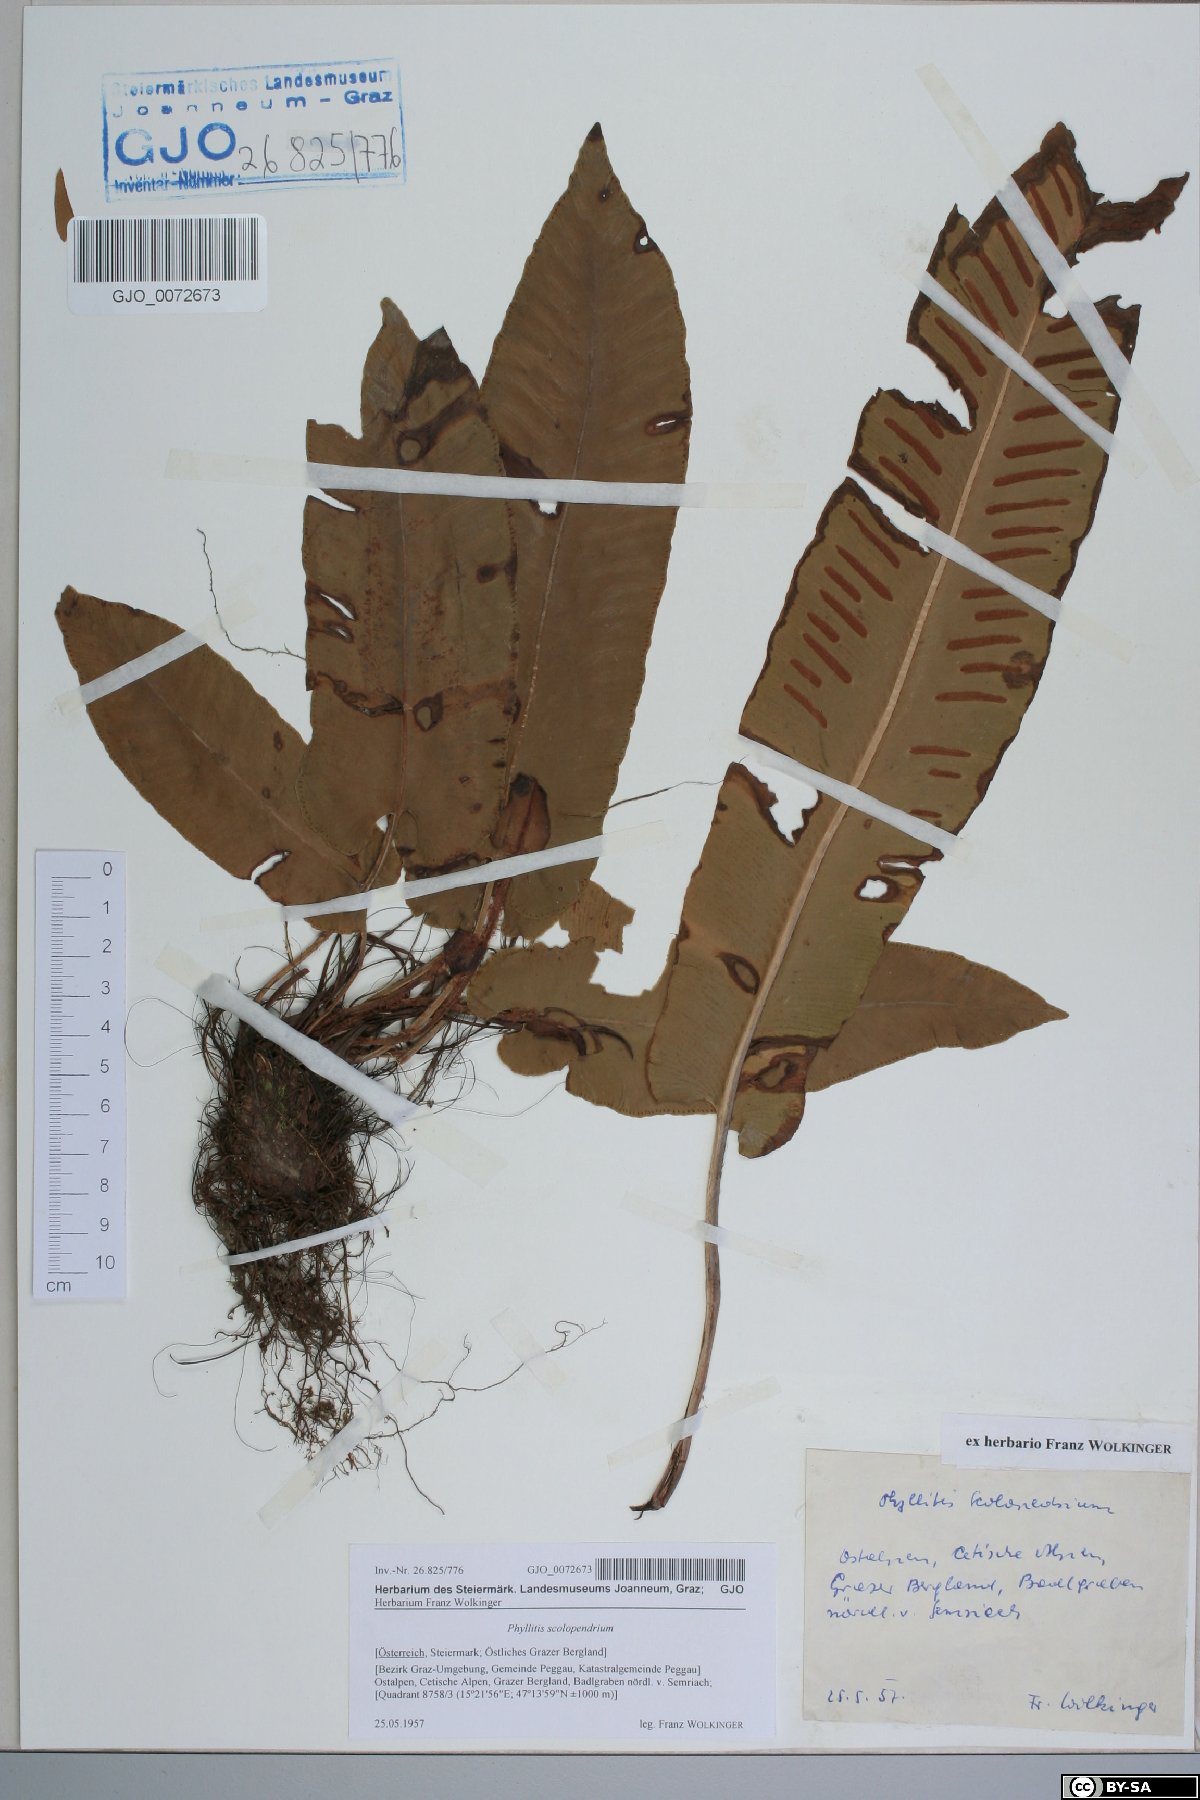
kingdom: Plantae
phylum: Tracheophyta
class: Polypodiopsida
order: Polypodiales
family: Aspleniaceae
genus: Asplenium
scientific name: Asplenium scolopendrium
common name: Hart's-tongue fern
